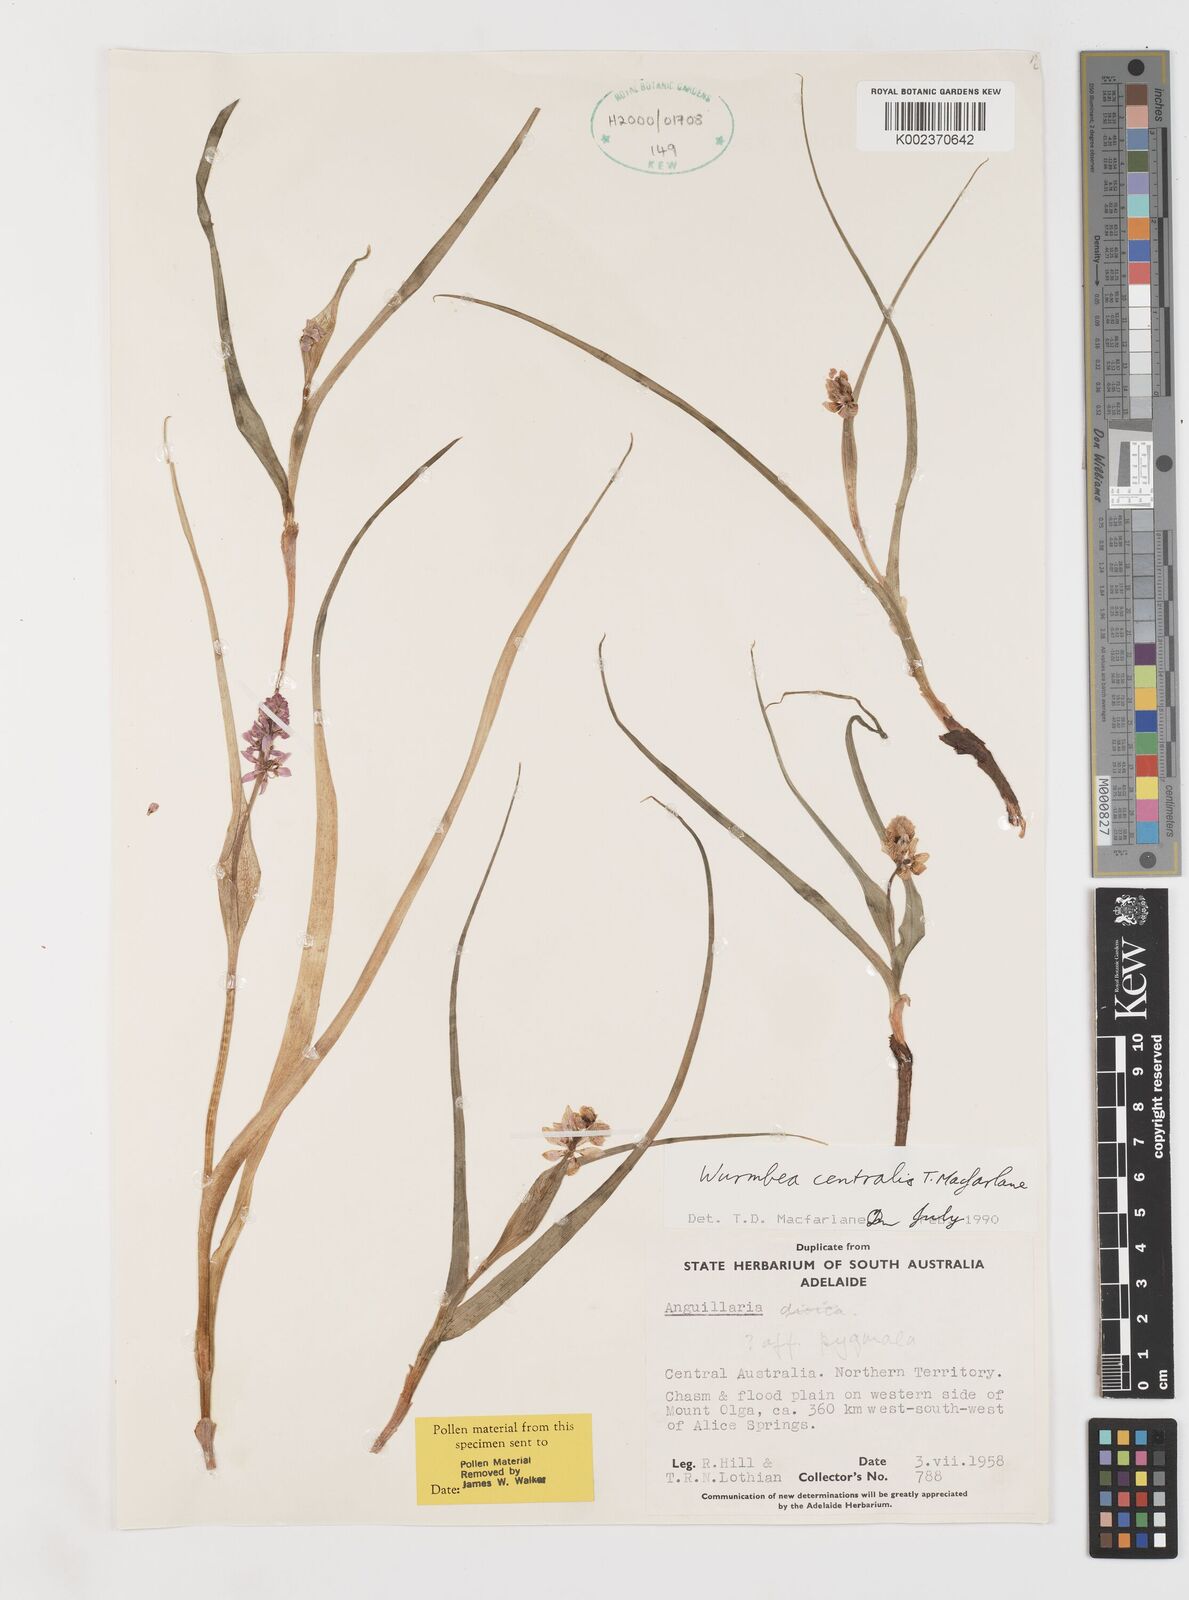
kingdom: Plantae
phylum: Tracheophyta
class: Liliopsida
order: Liliales
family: Colchicaceae
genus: Wurmbea
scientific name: Wurmbea centralis
